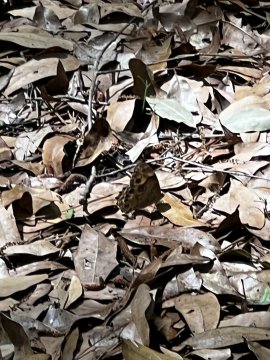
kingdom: Animalia
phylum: Arthropoda
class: Insecta
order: Lepidoptera
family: Nymphalidae
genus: Enodia
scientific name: Enodia portlandia
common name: Southern Pearly Eye
